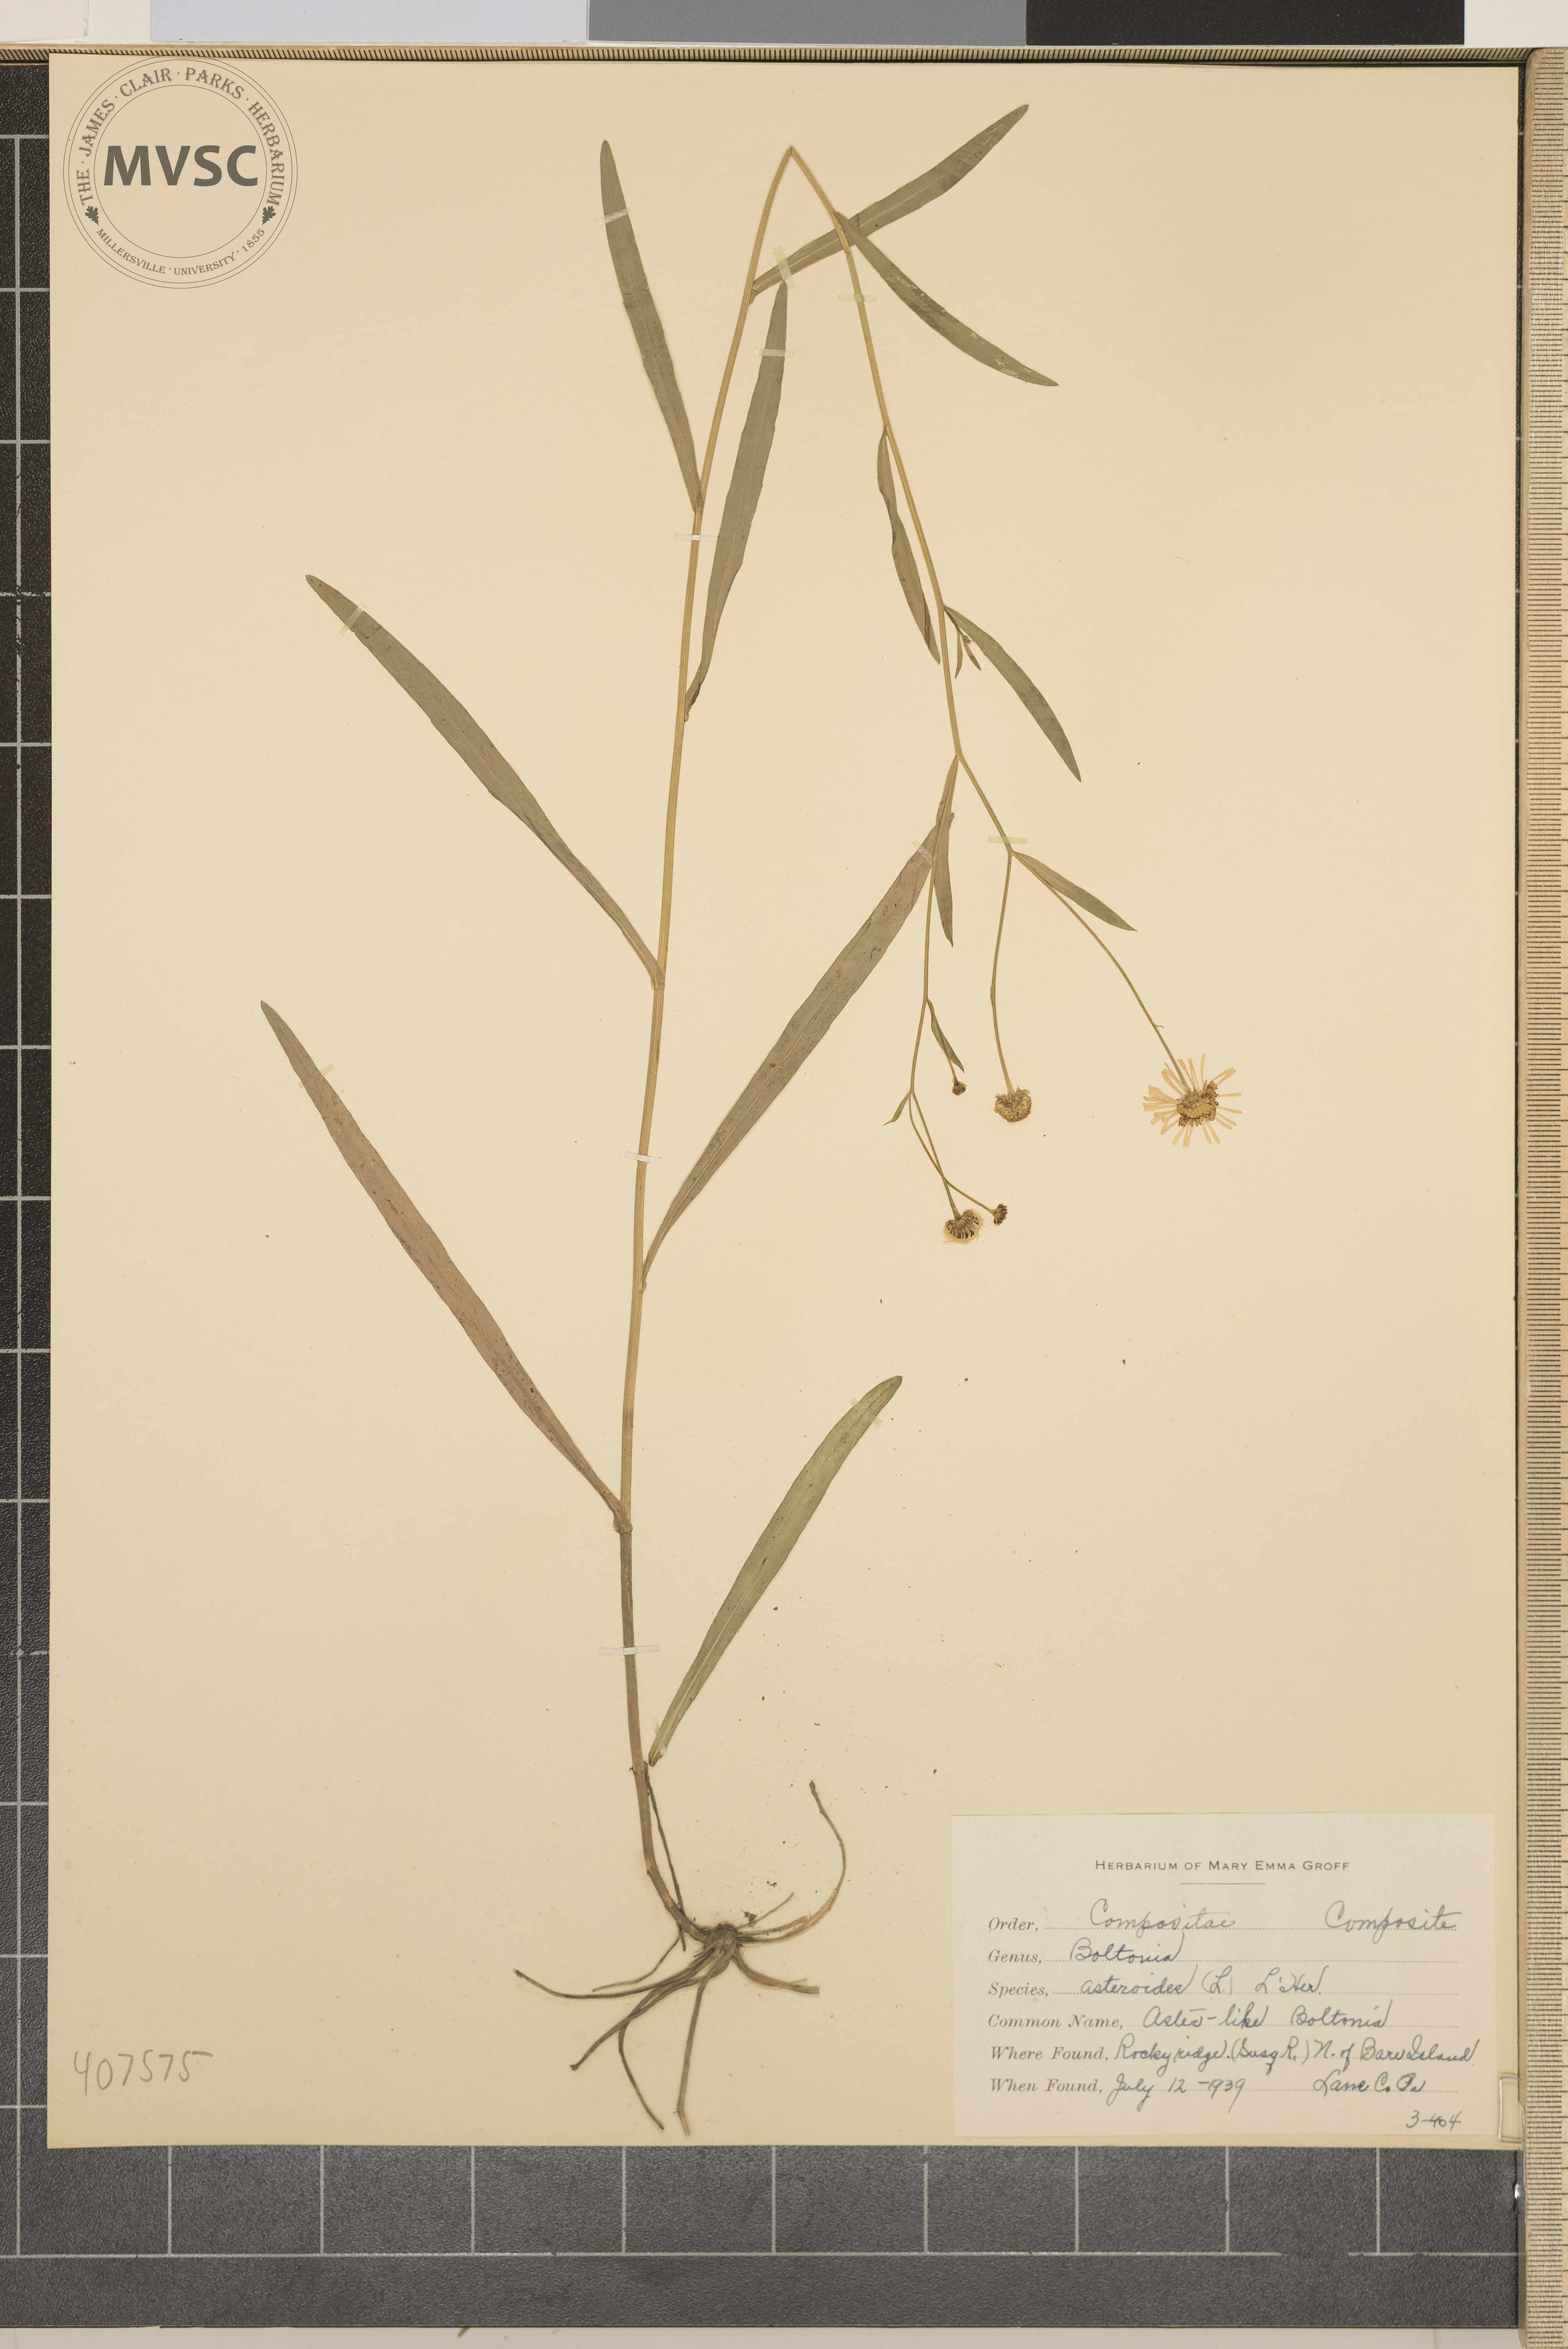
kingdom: Plantae
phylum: Tracheophyta
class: Magnoliopsida
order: Asterales
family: Asteraceae
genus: Boltonia
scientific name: Boltonia asteroides
